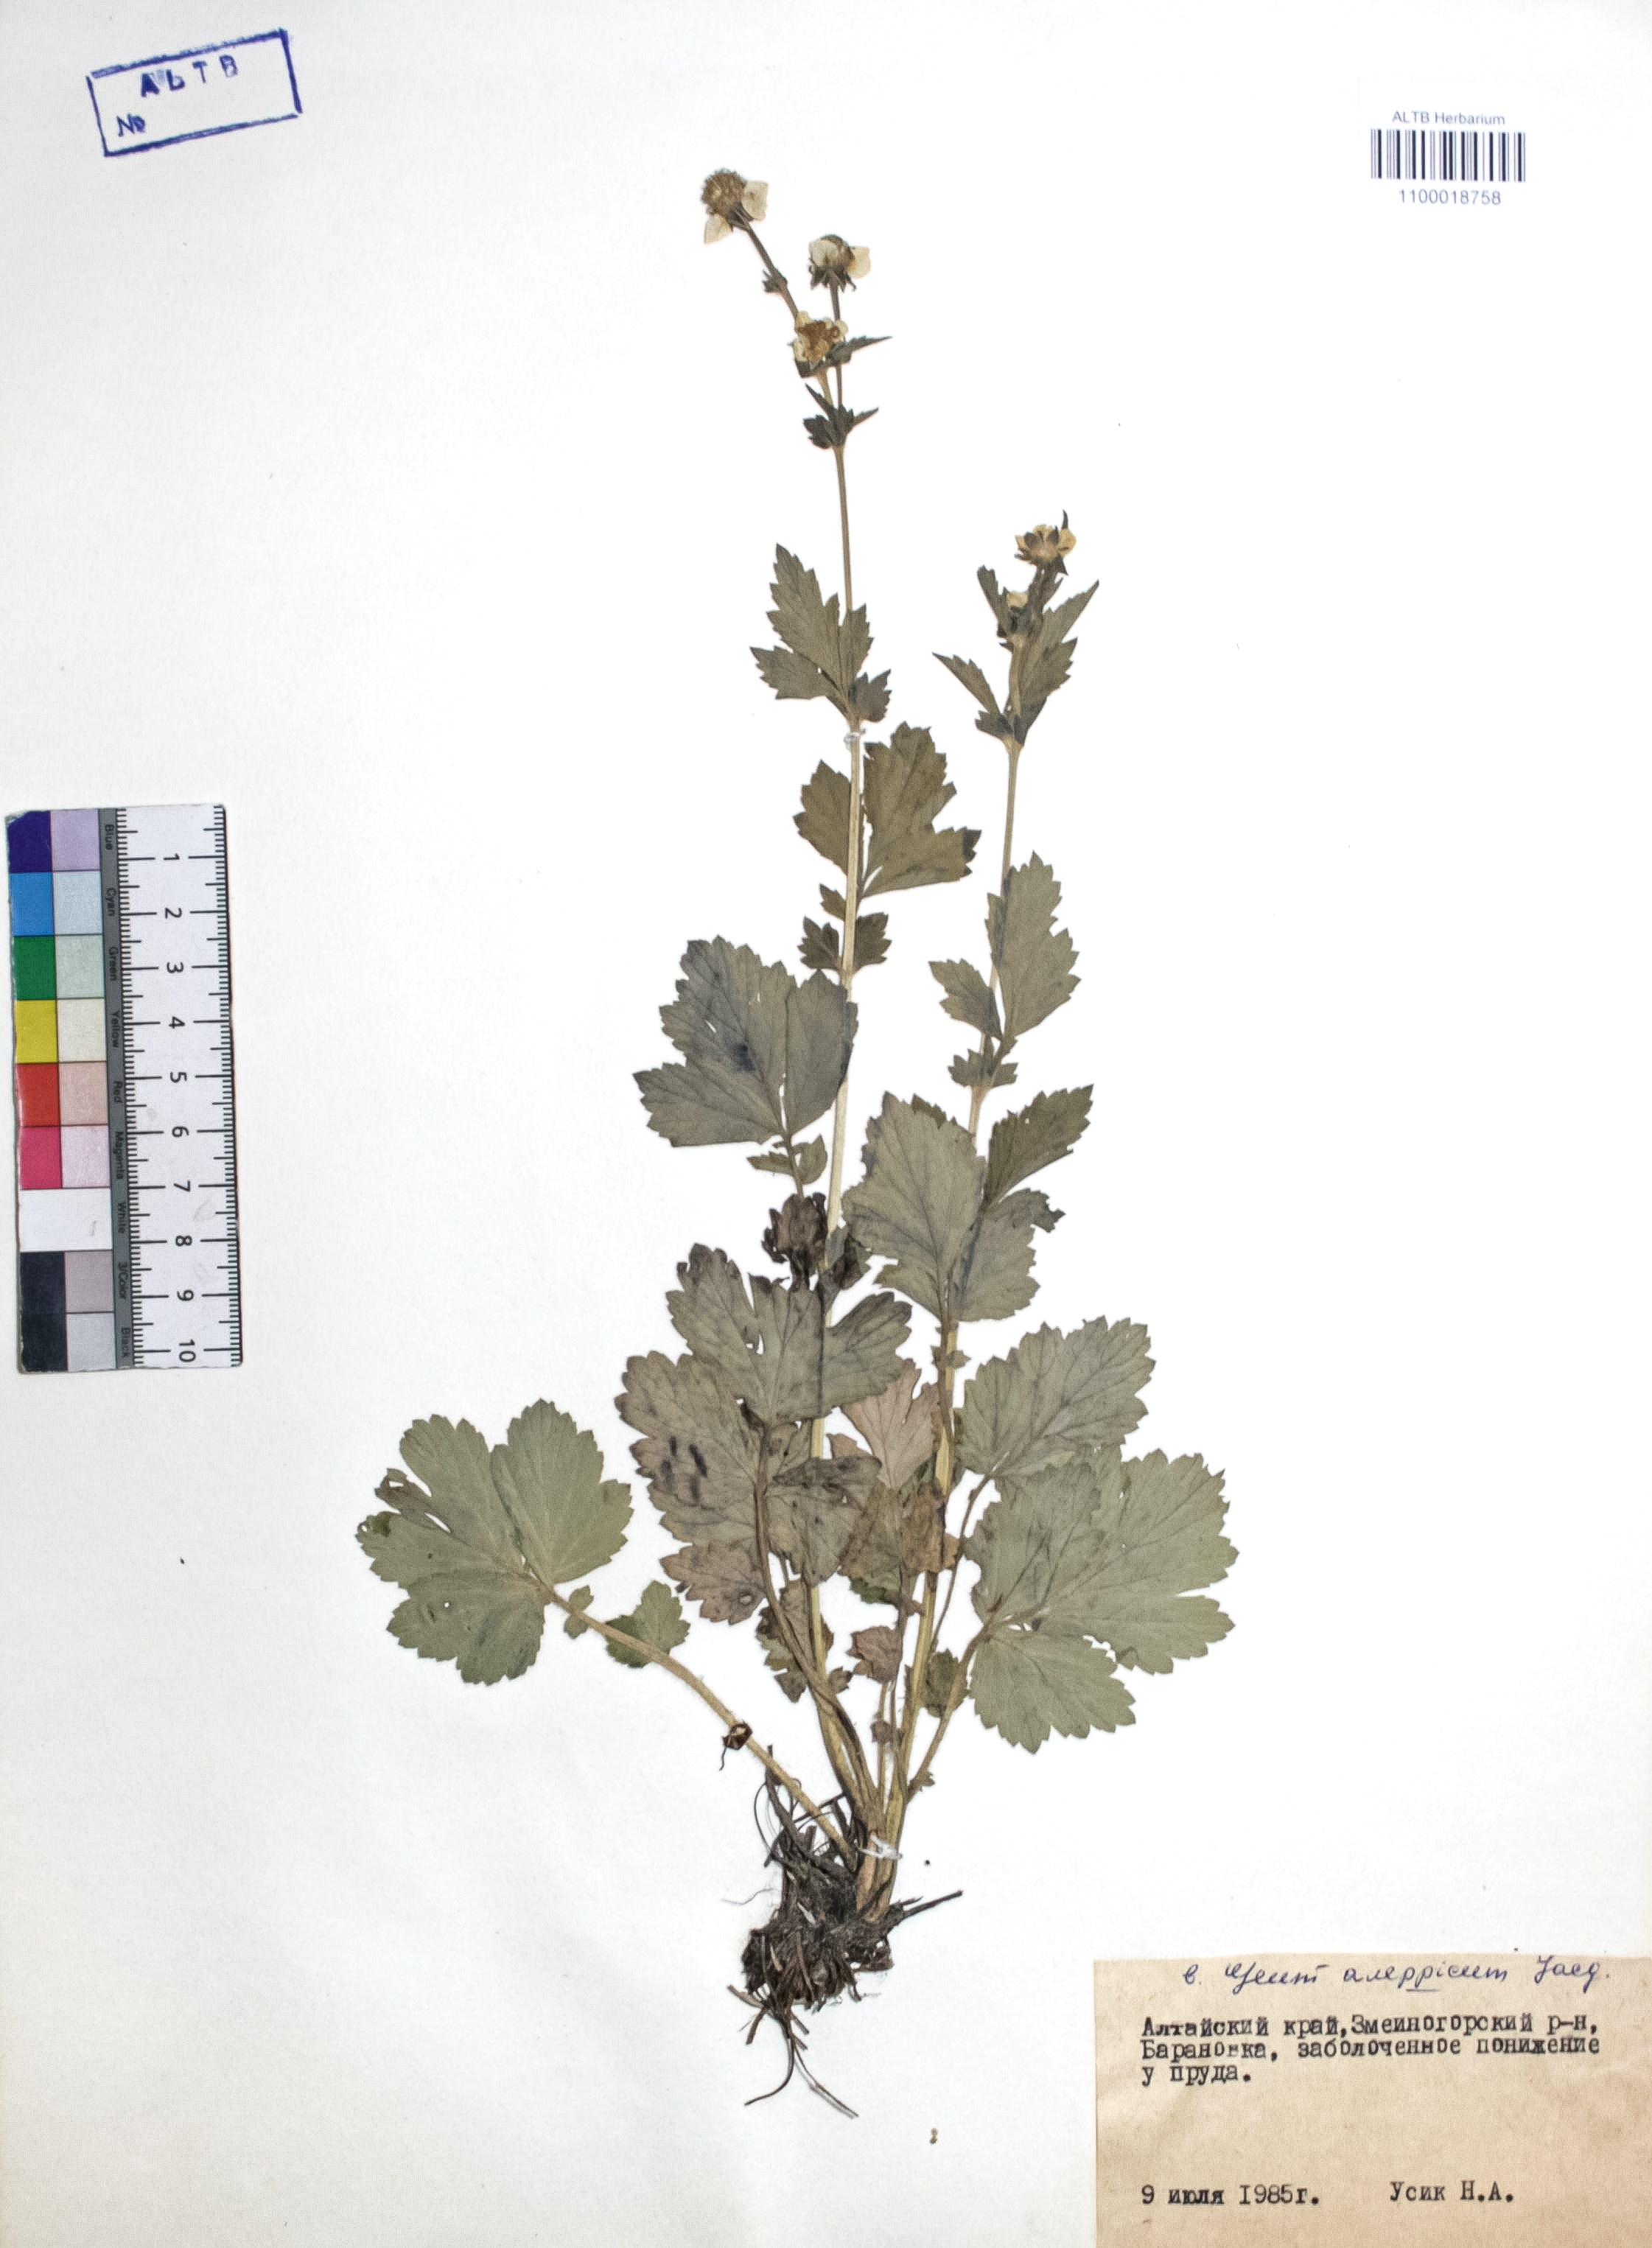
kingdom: Plantae
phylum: Tracheophyta
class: Magnoliopsida
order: Rosales
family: Rosaceae
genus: Geum
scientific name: Geum aleppicum
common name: Yellow avens
